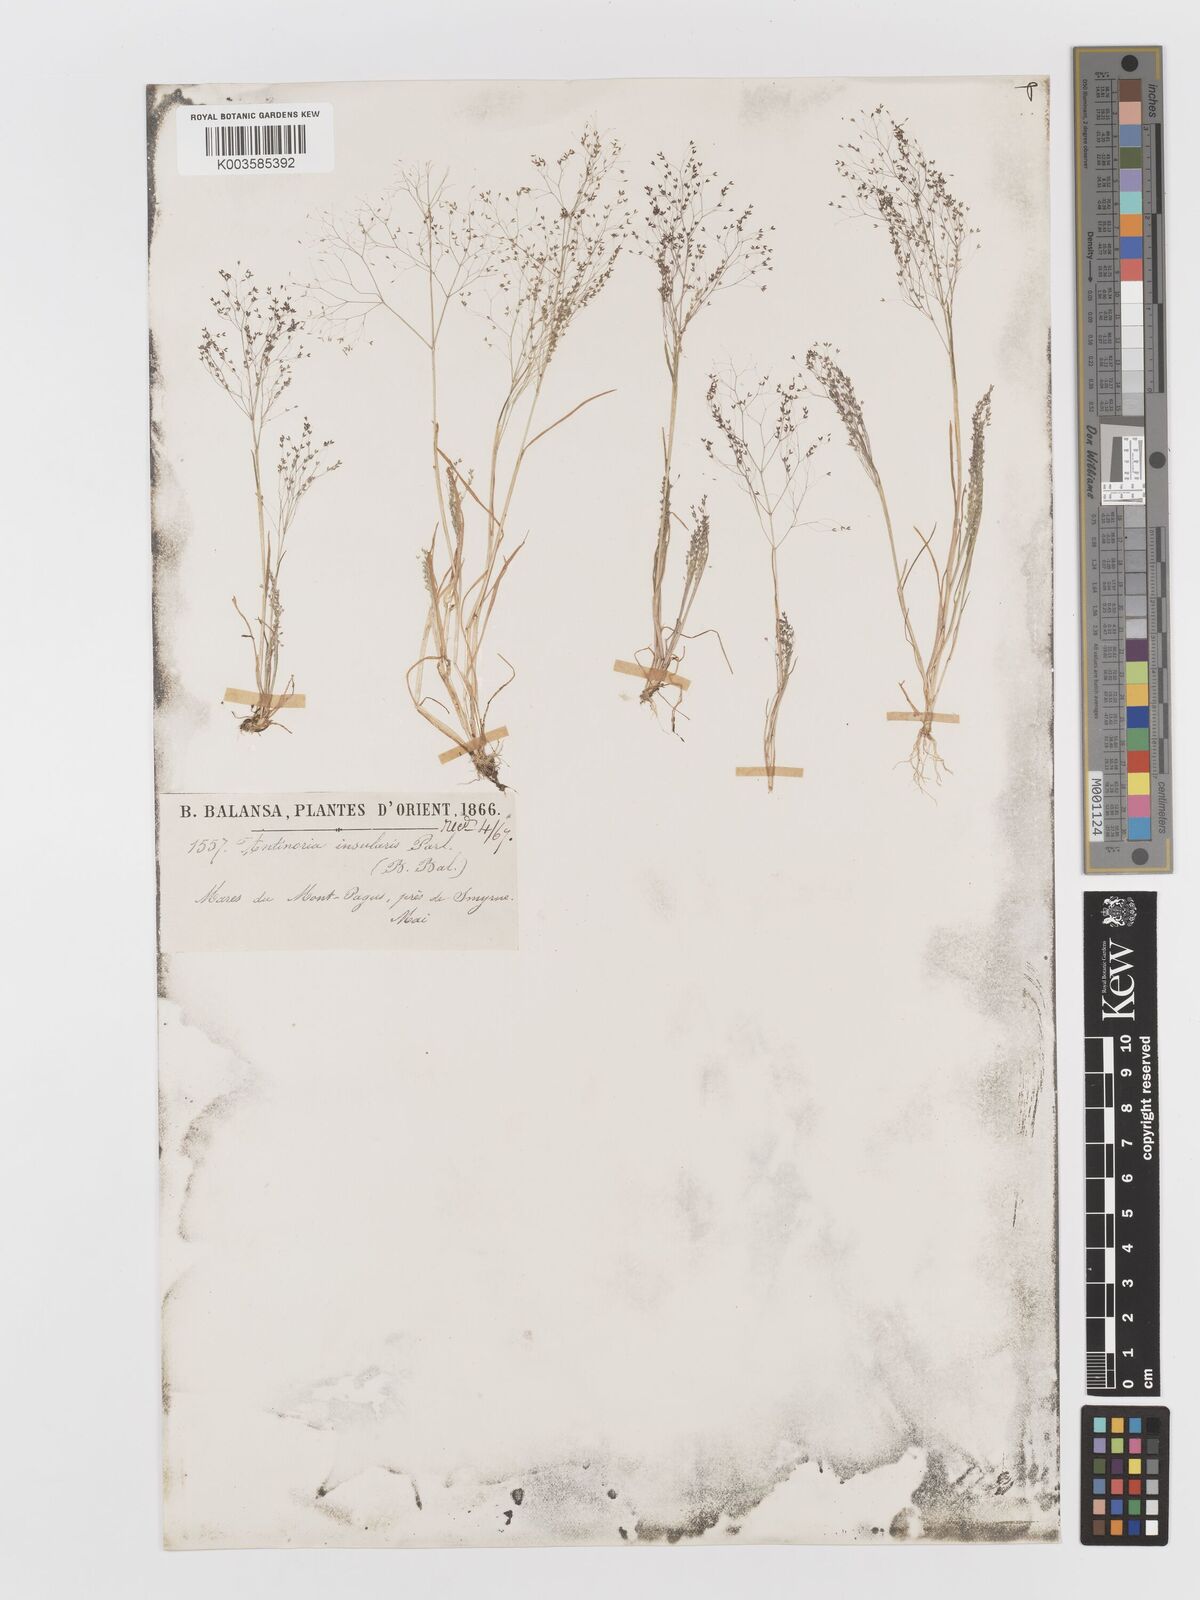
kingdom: Plantae
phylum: Tracheophyta
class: Liliopsida
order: Poales
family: Poaceae
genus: Antinoria
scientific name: Antinoria insularis
